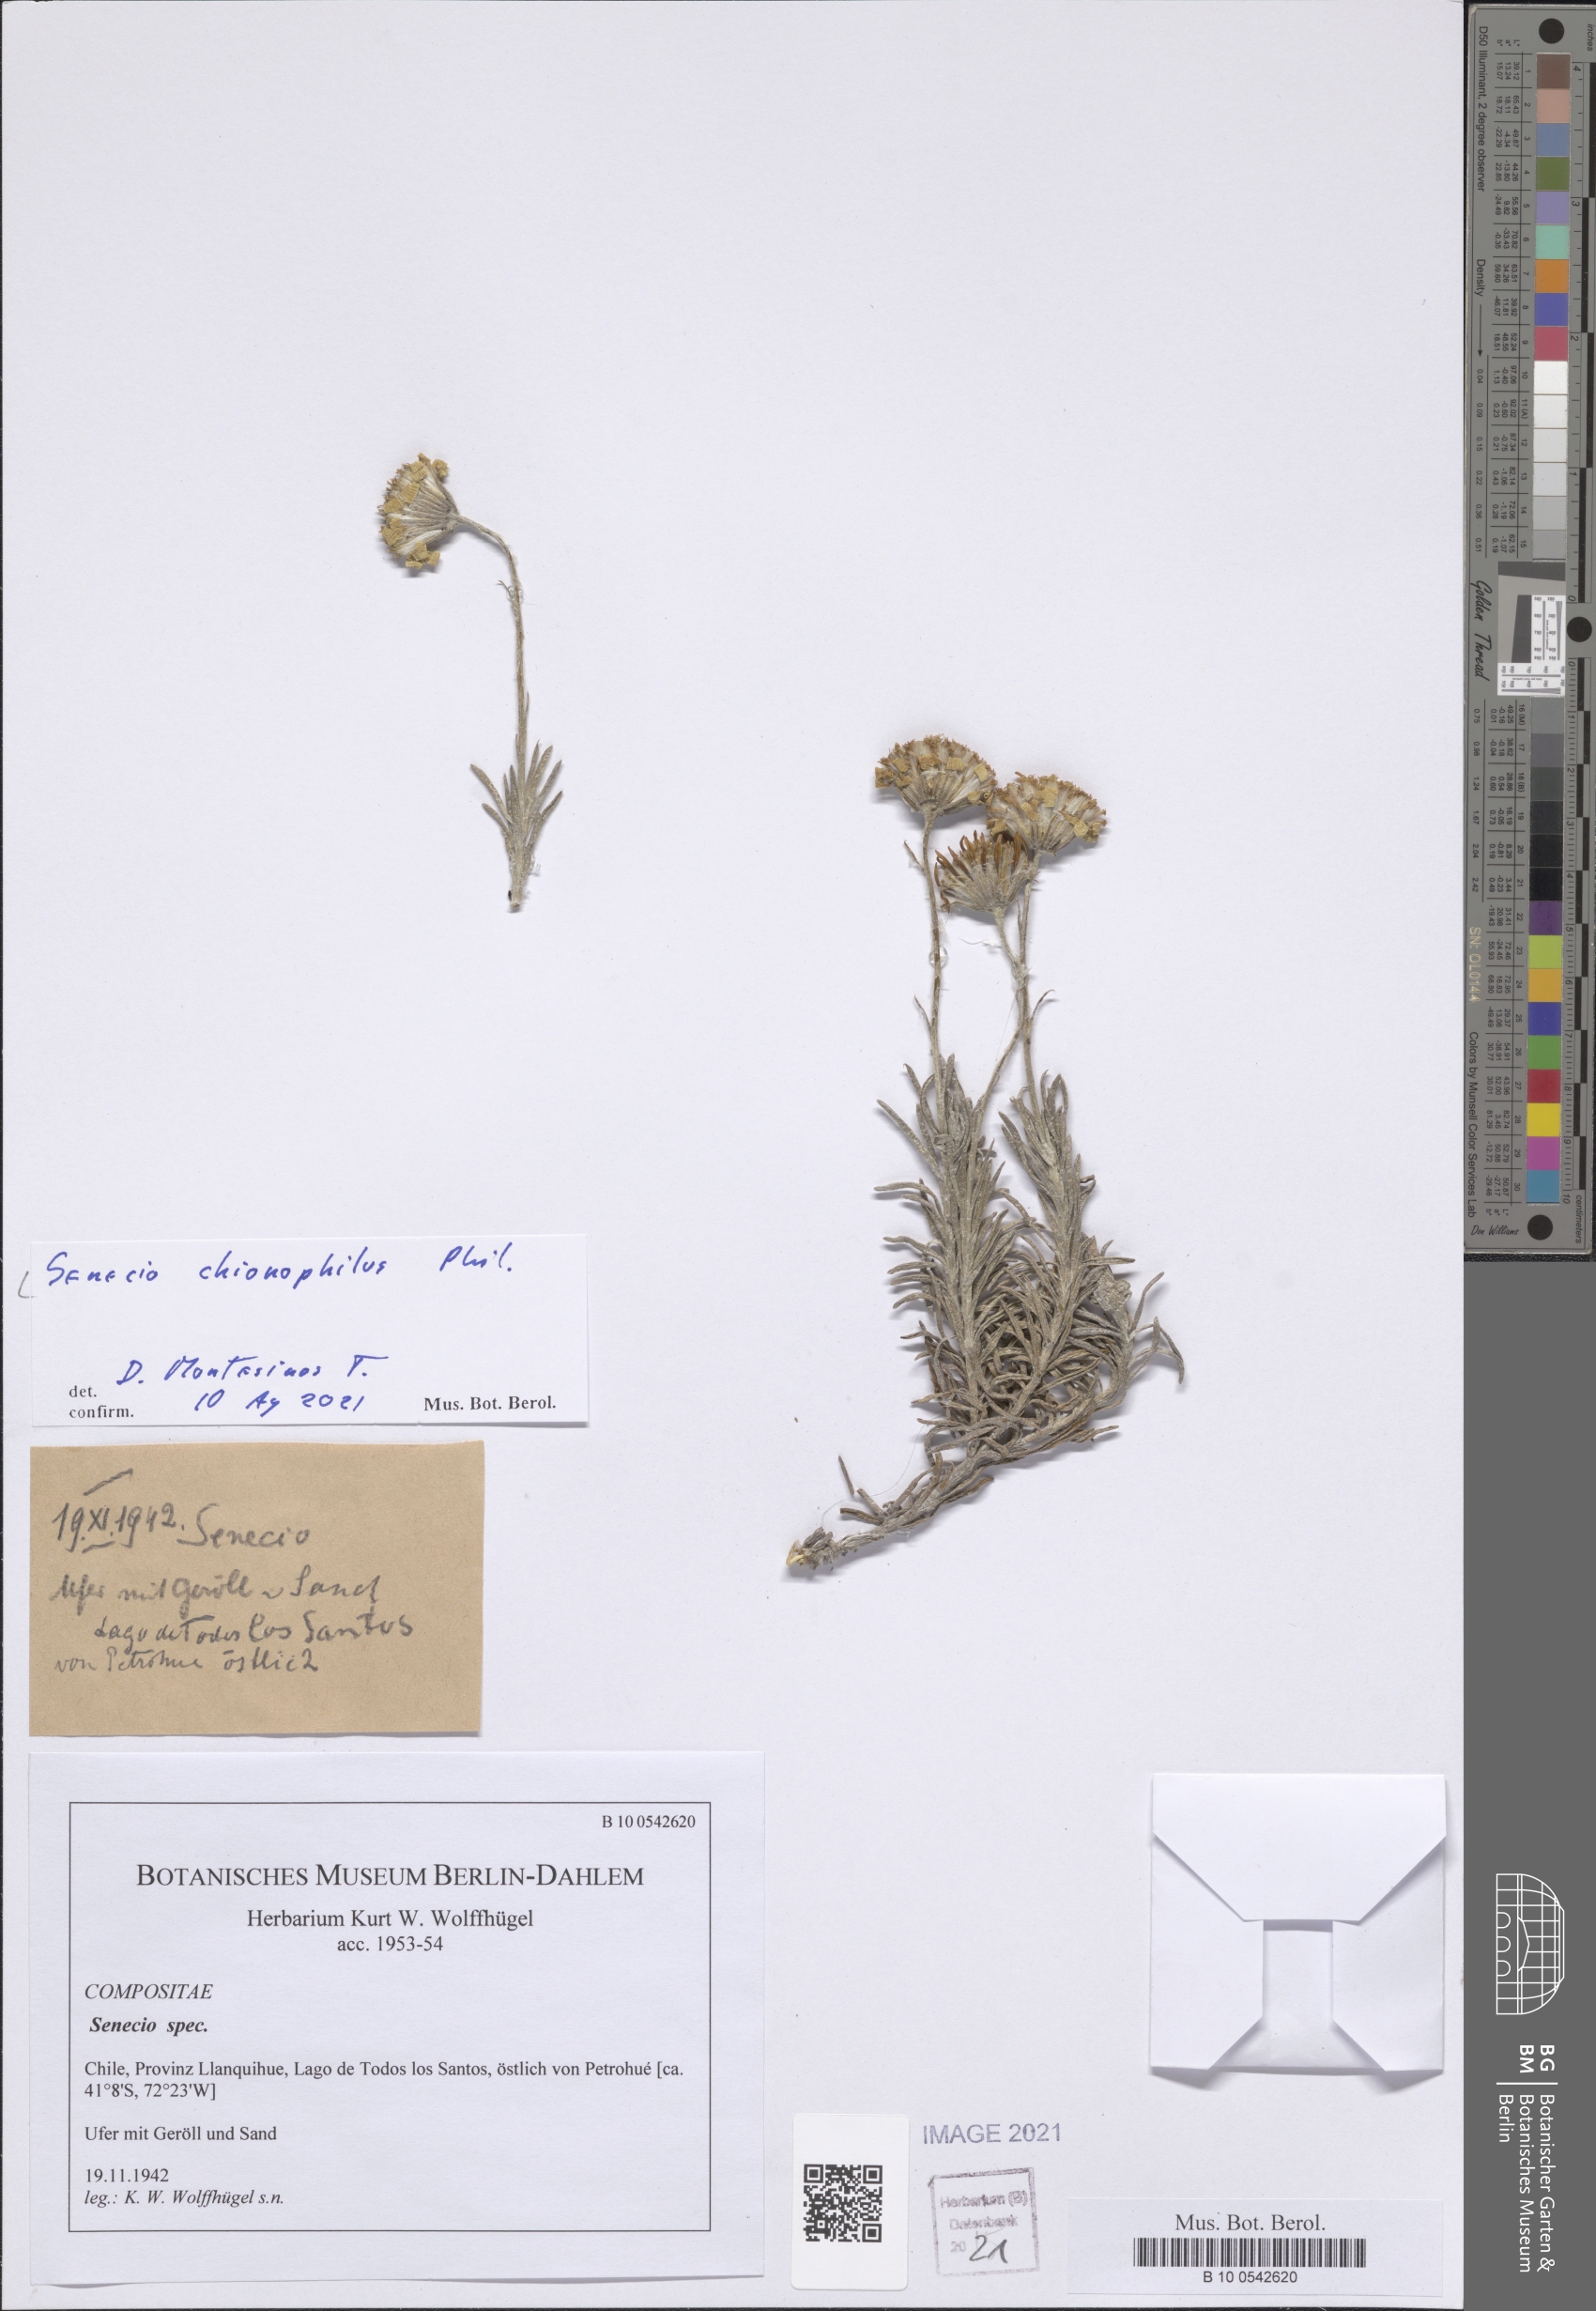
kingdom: Plantae
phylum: Tracheophyta
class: Magnoliopsida
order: Asterales
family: Asteraceae
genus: Senecio
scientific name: Senecio chionophilus
